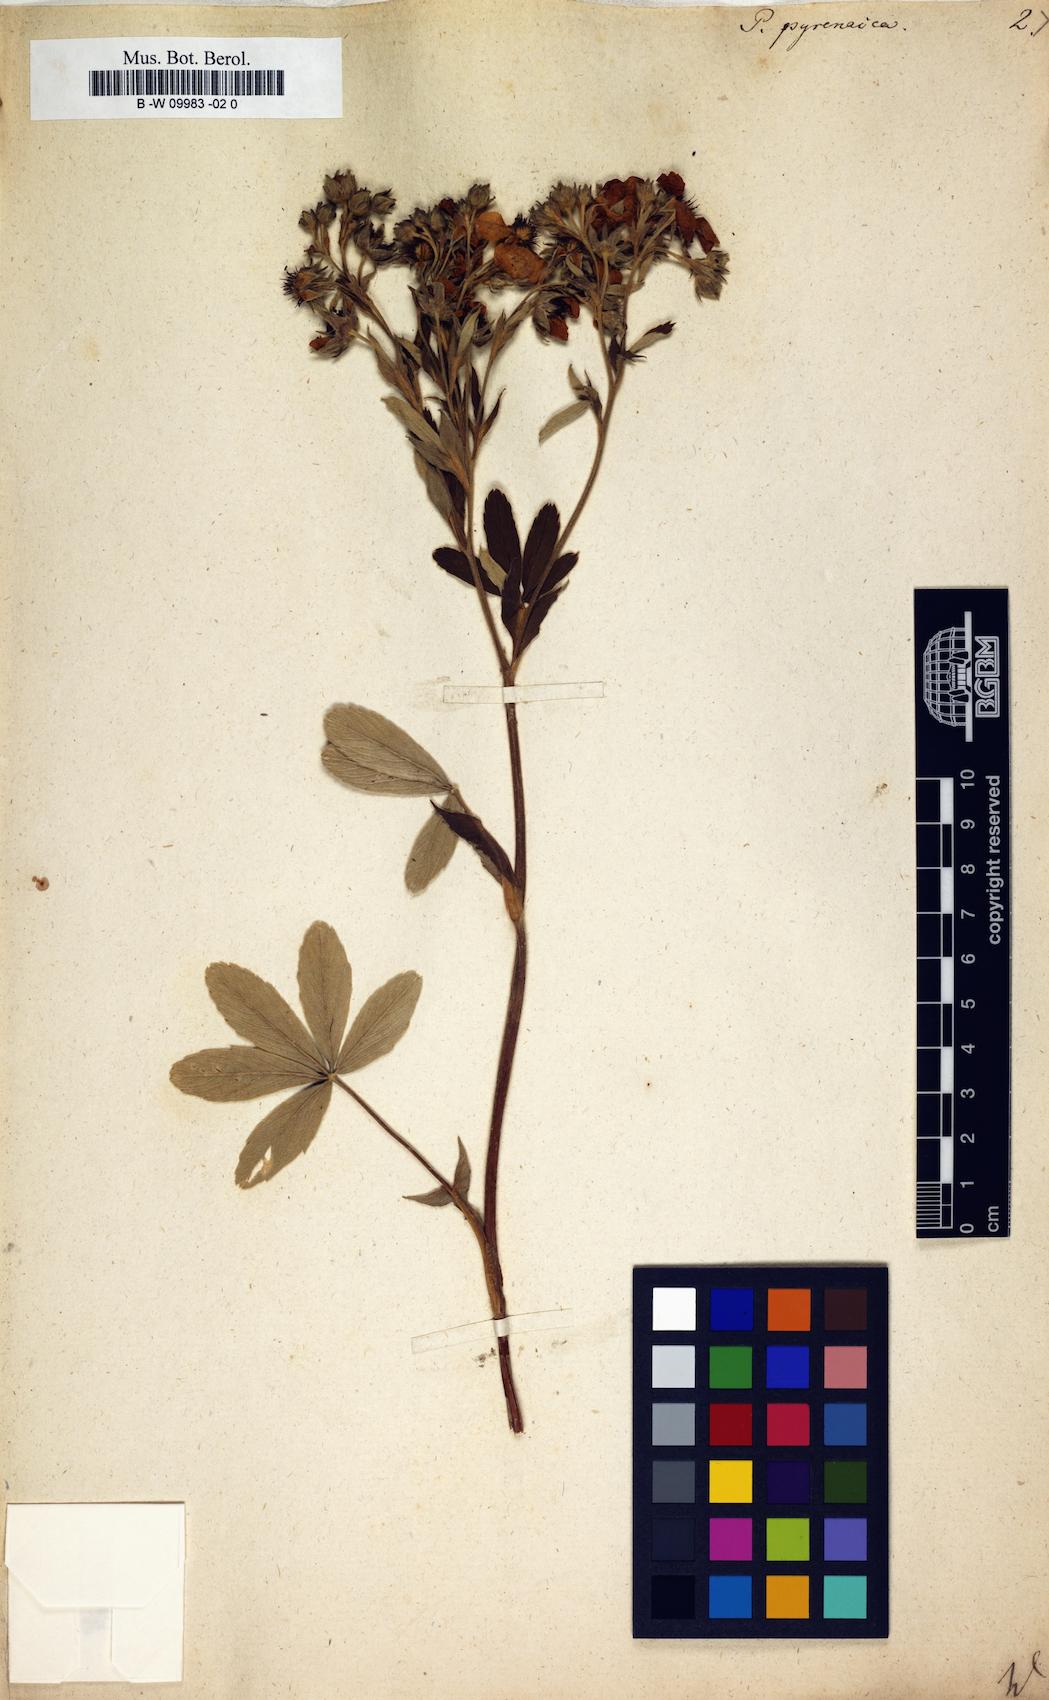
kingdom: Plantae
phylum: Tracheophyta
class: Magnoliopsida
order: Rosales
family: Rosaceae
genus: Potentilla
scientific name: Potentilla pyrenaica
